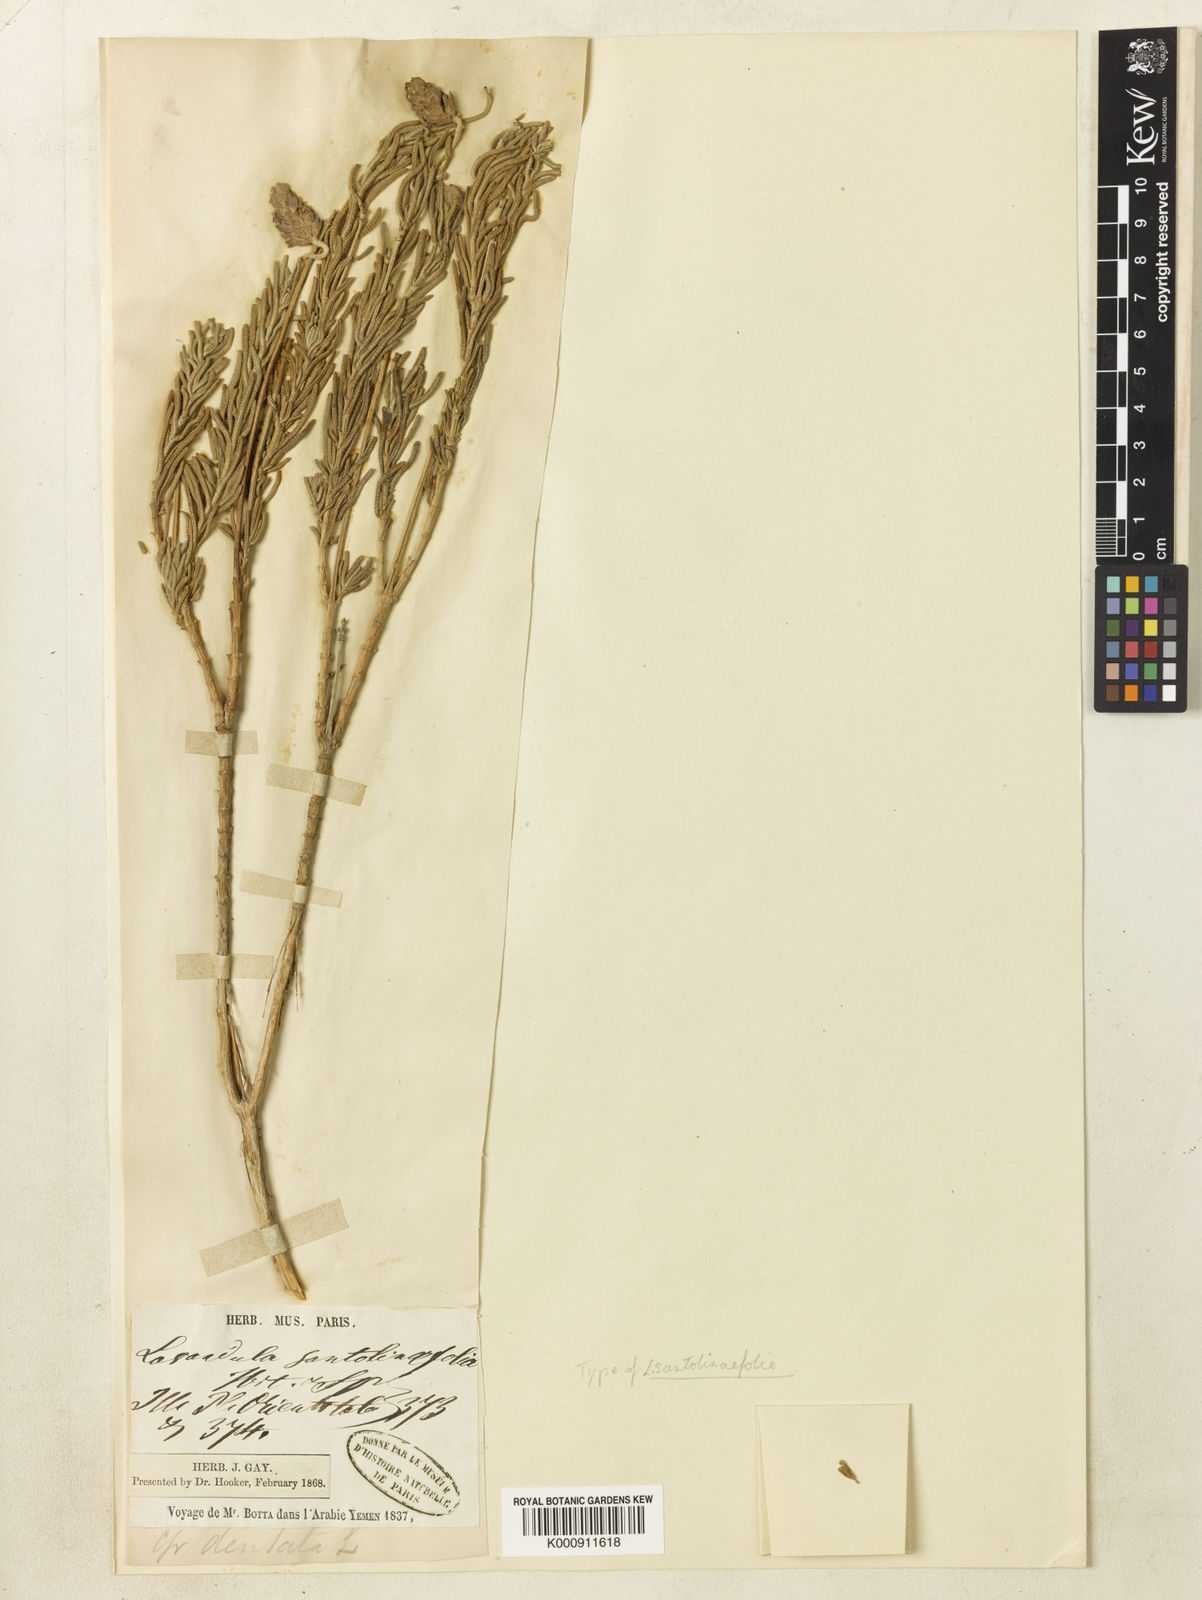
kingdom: Plantae
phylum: Tracheophyta
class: Magnoliopsida
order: Lamiales
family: Lamiaceae
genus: Lavandula
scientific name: Lavandula dentata
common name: French lavender
